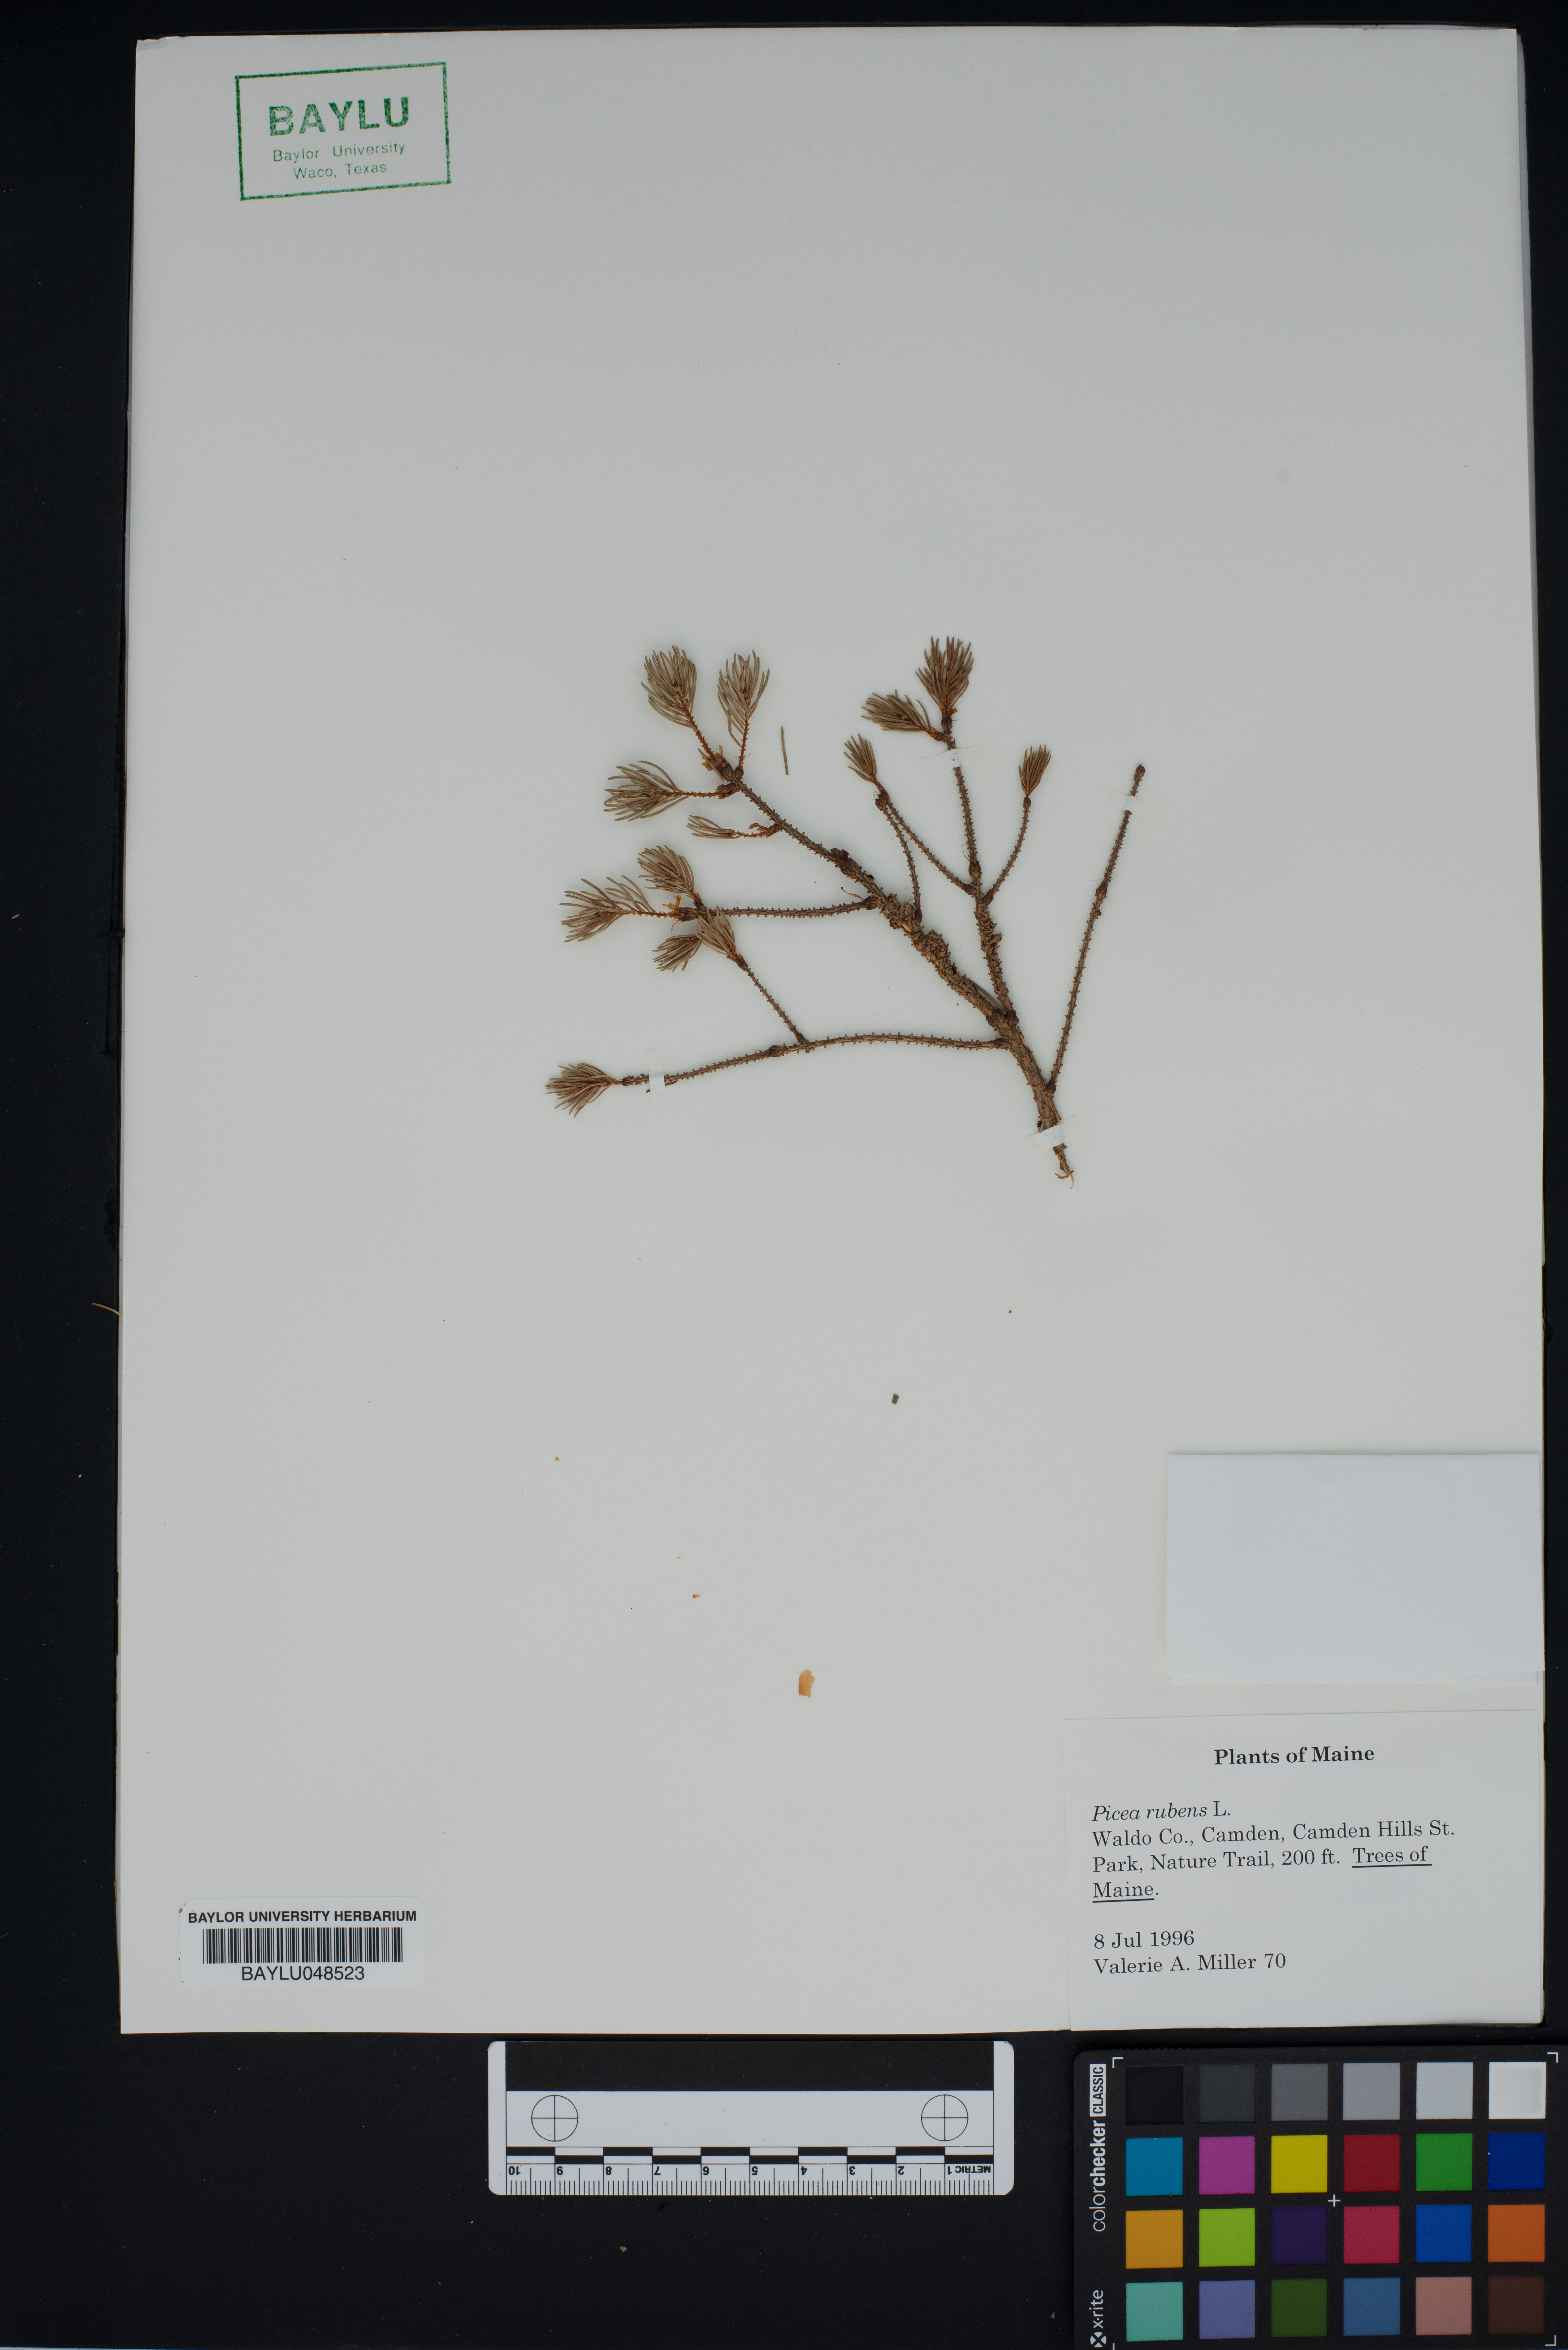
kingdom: Plantae
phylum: Tracheophyta
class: Pinopsida
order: Pinales
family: Pinaceae
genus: Picea
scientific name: Picea rubens
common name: Red spruce
